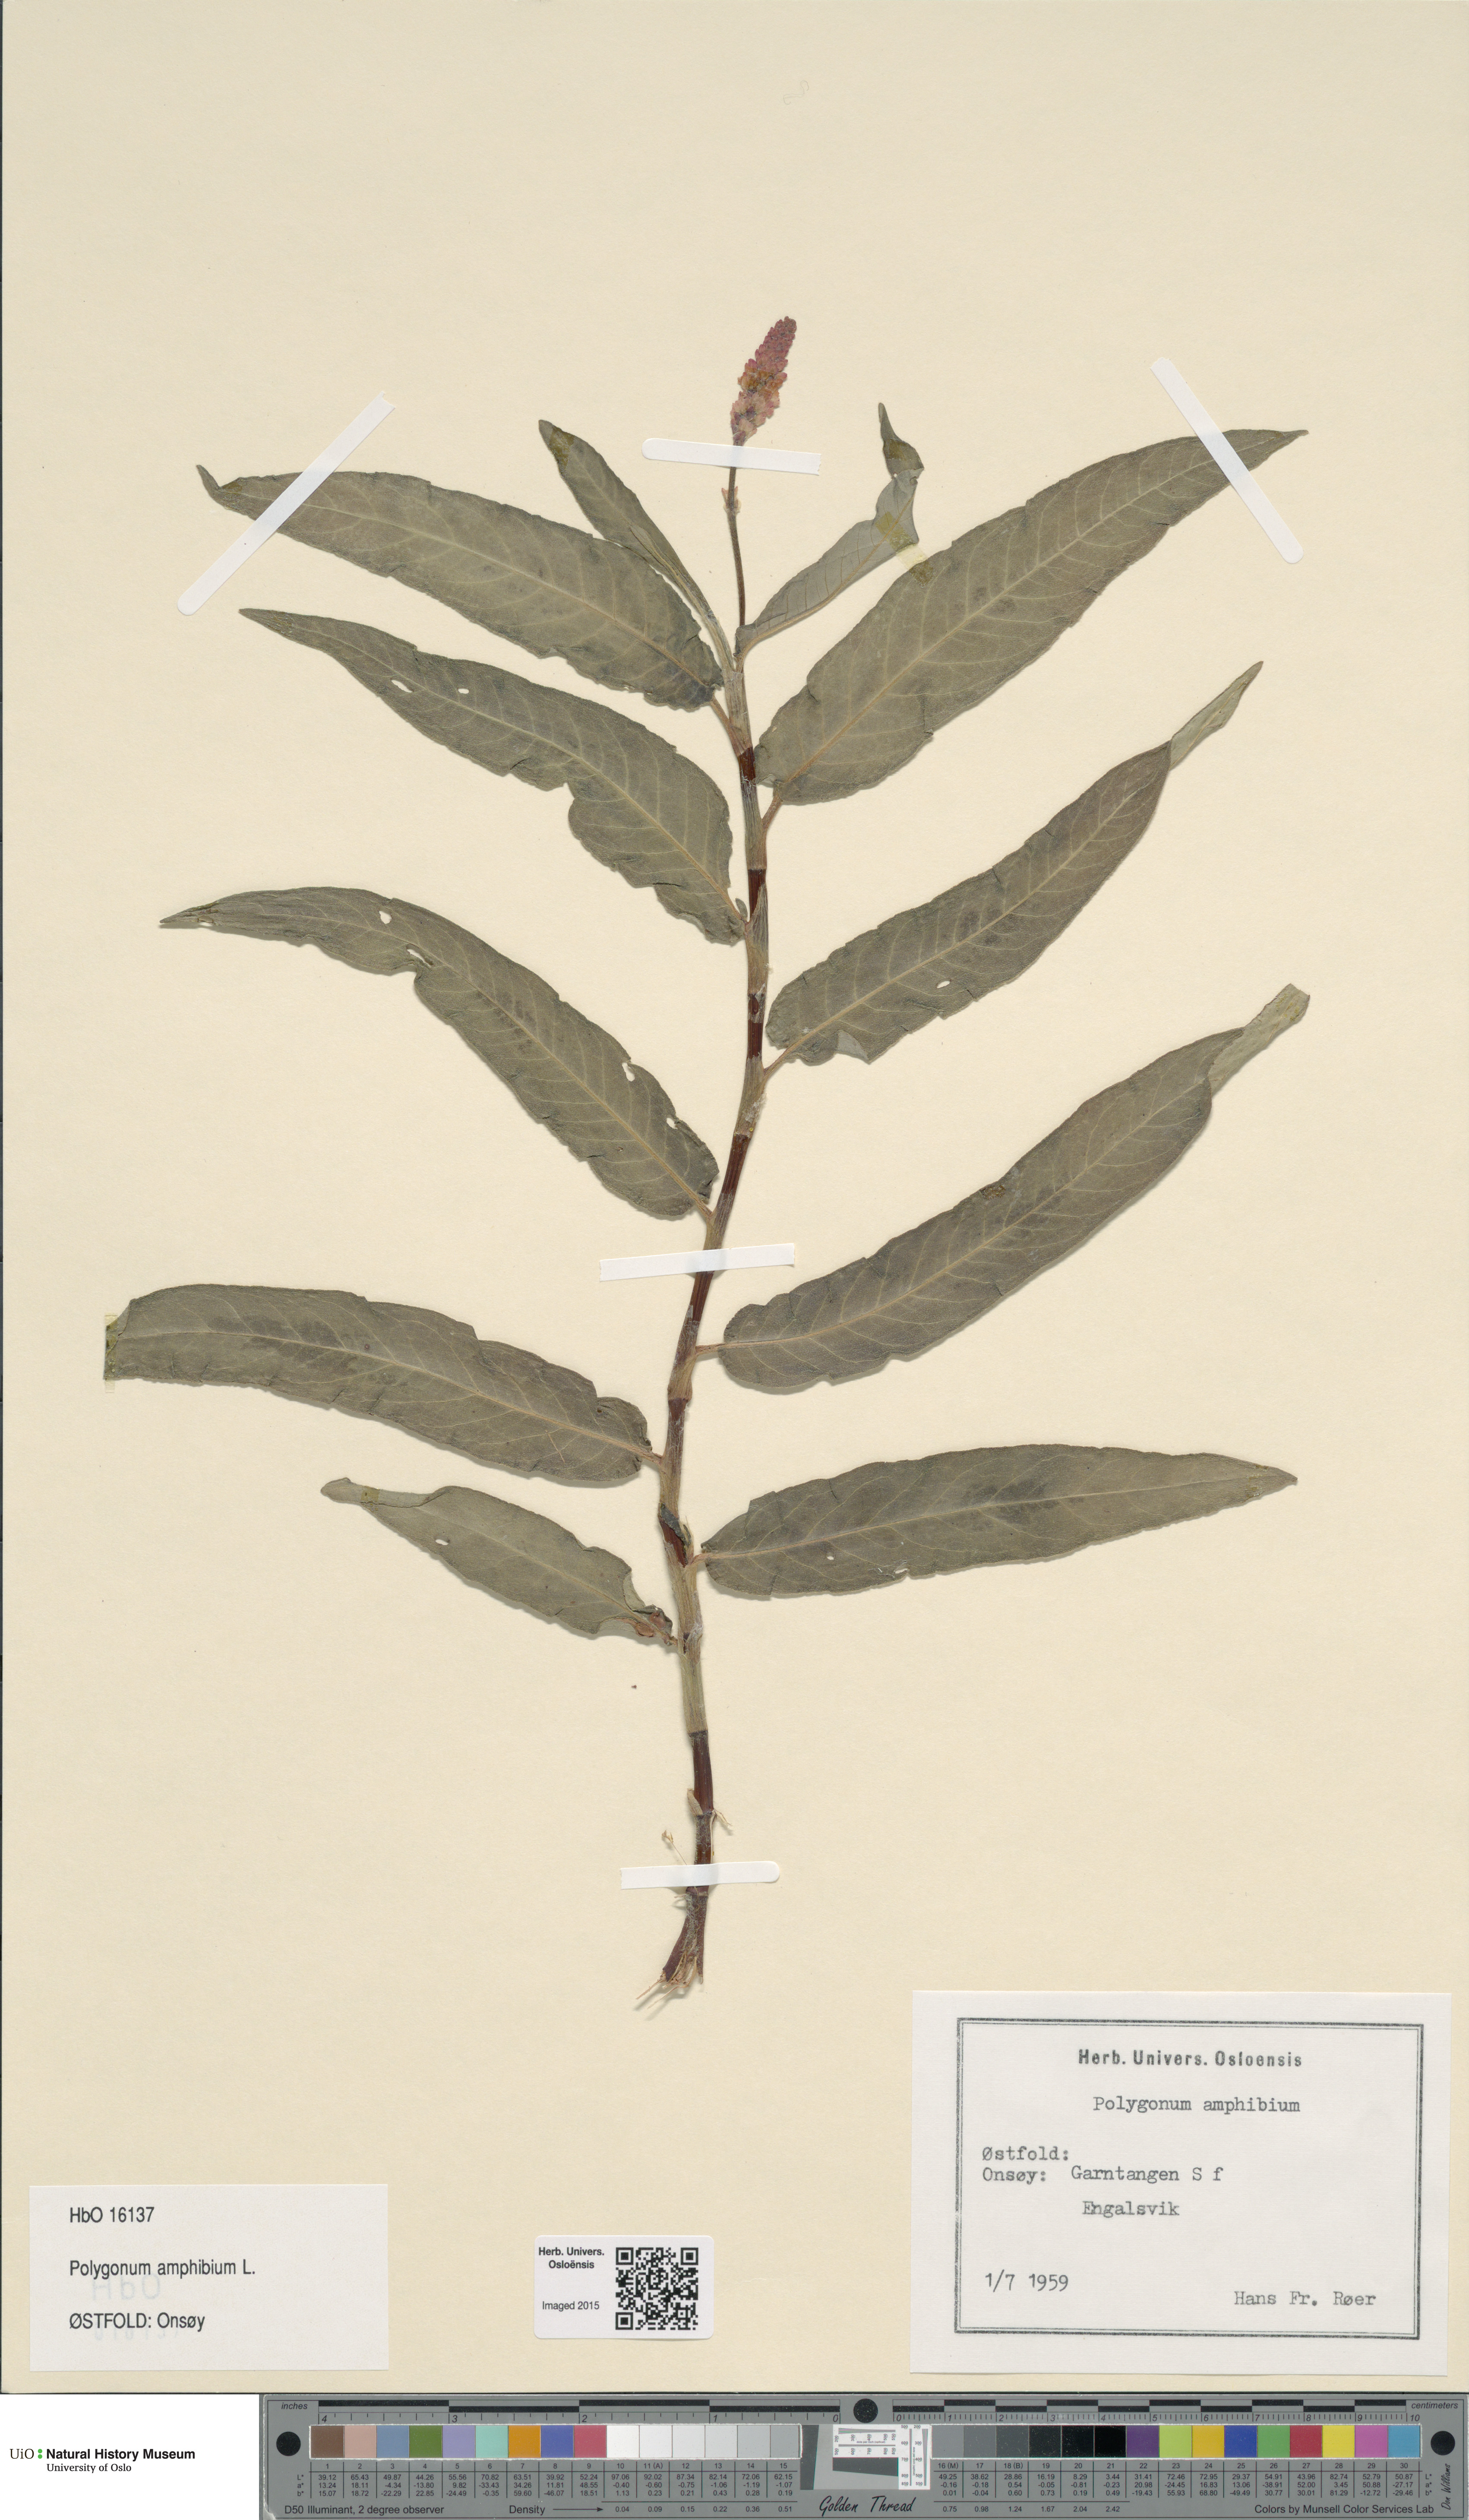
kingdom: Plantae
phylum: Tracheophyta
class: Magnoliopsida
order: Caryophyllales
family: Polygonaceae
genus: Persicaria
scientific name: Persicaria amphibia
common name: Amphibious bistort
